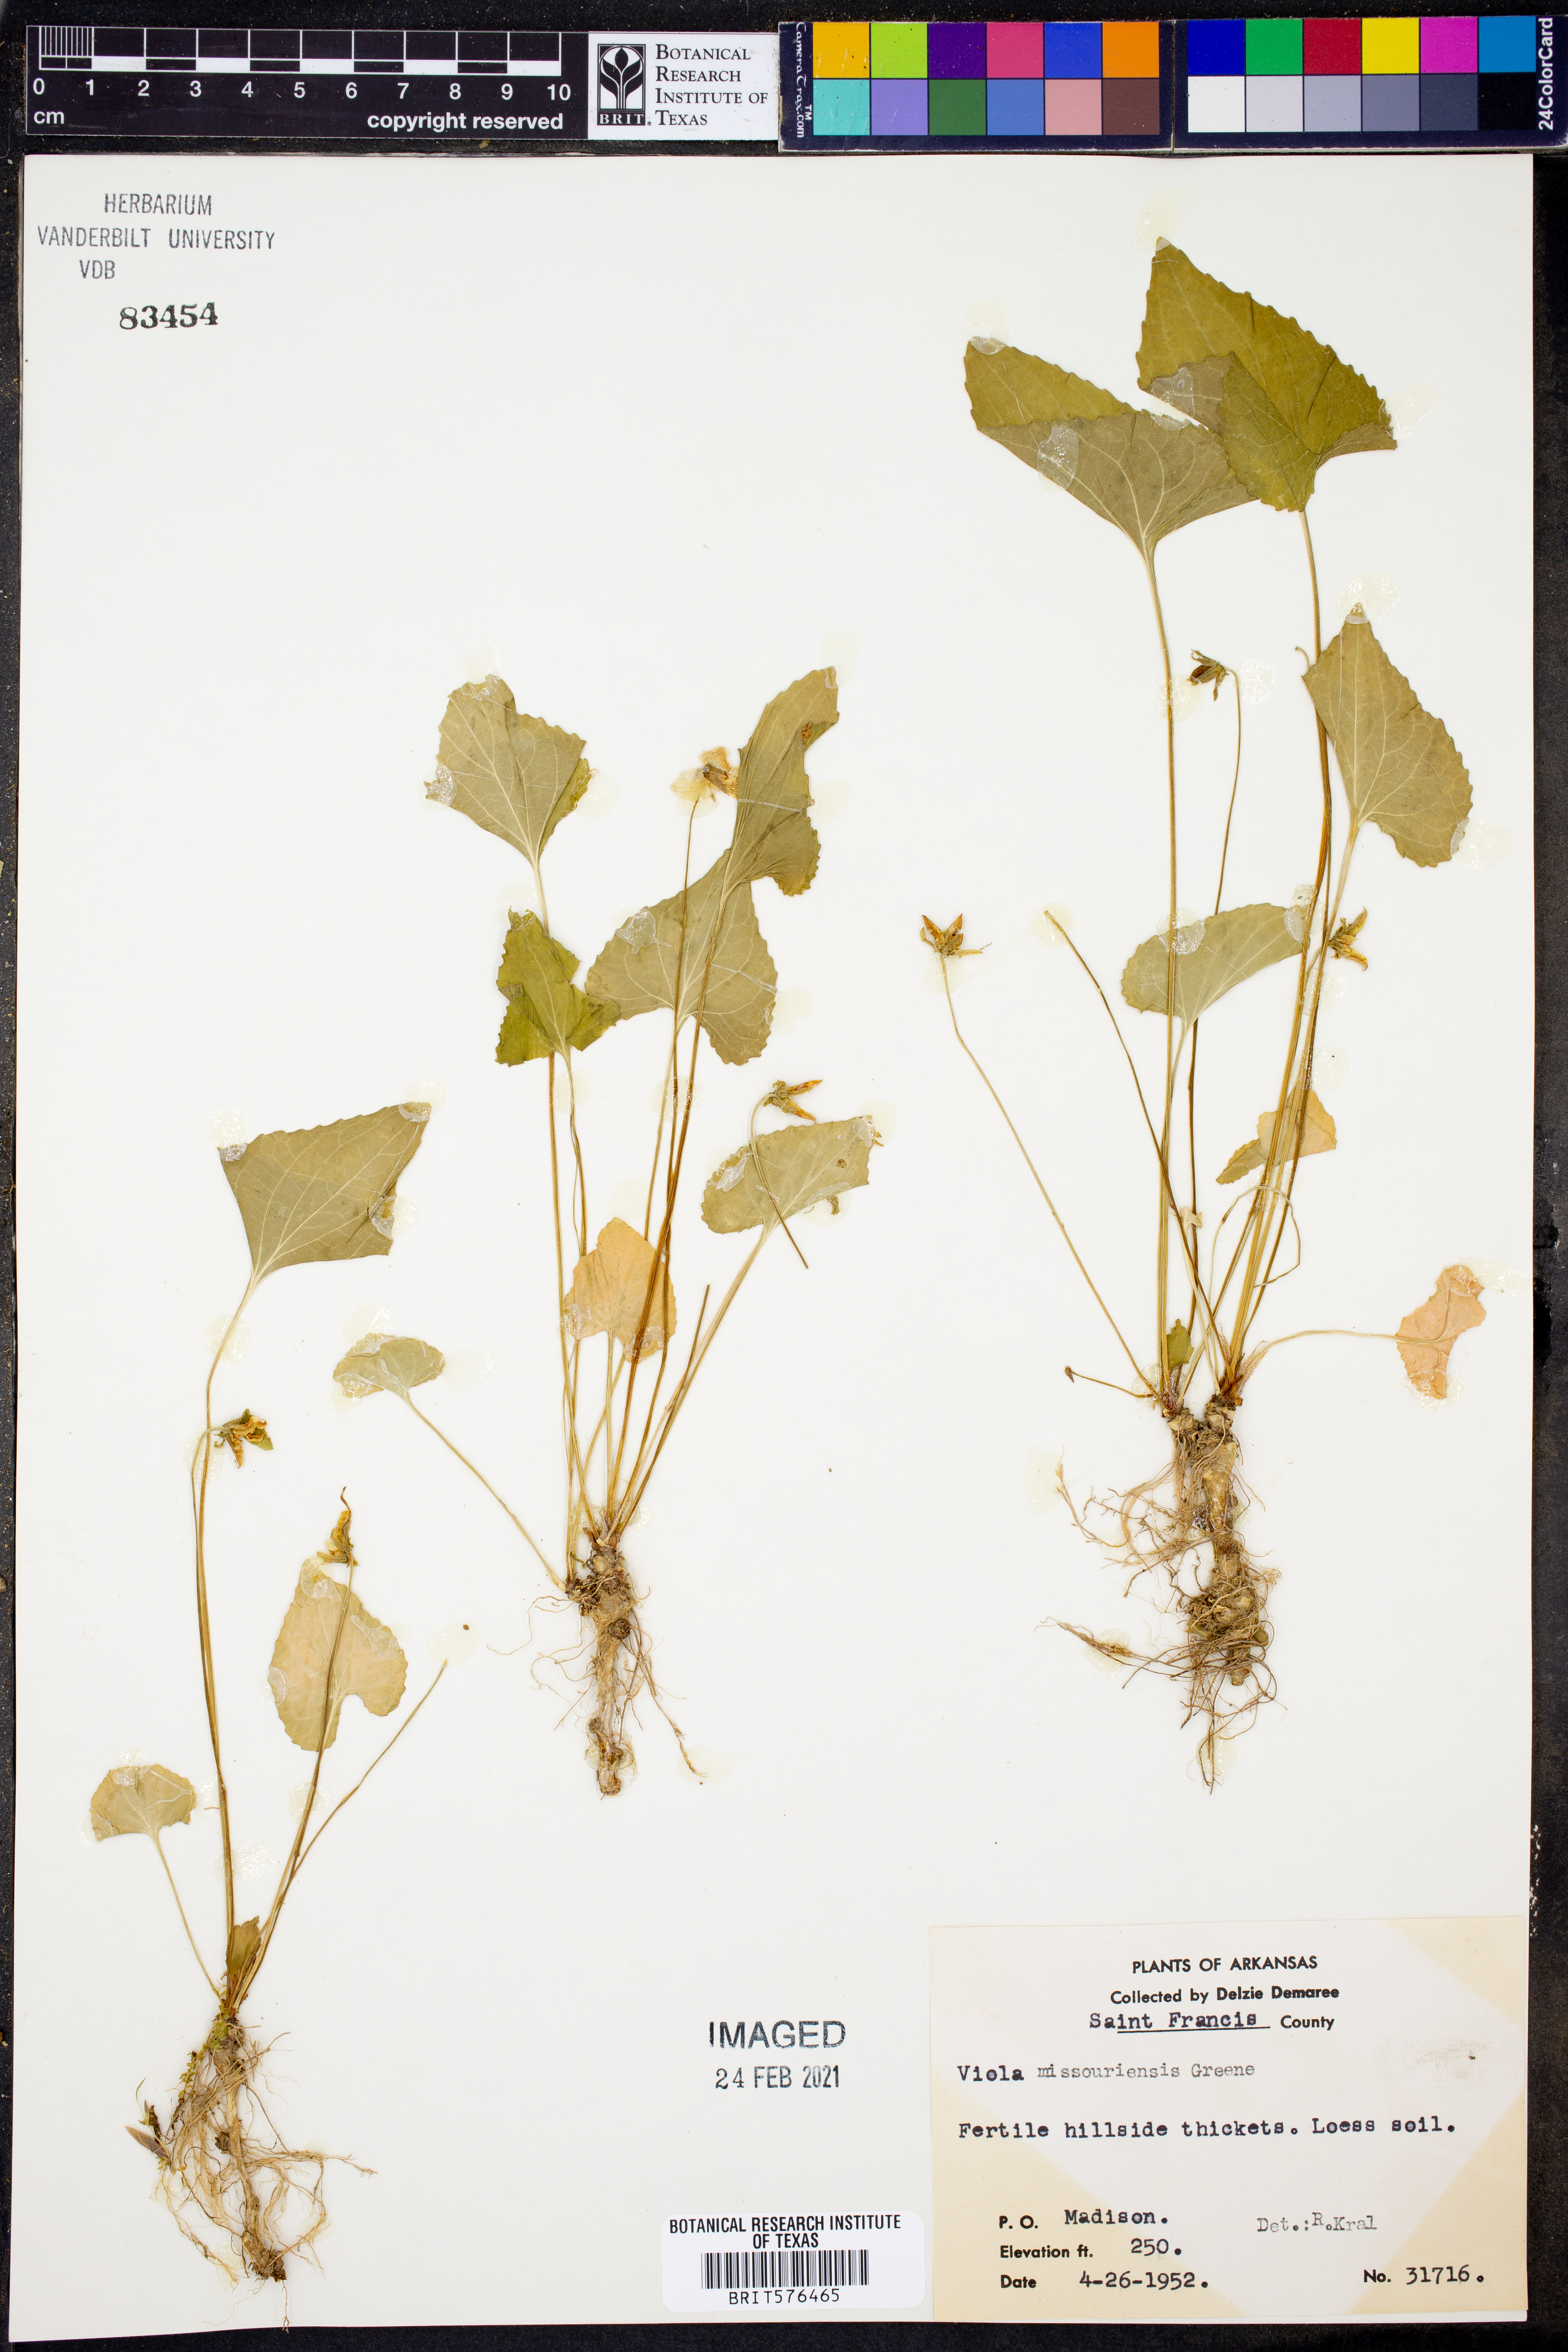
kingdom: Plantae
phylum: Tracheophyta
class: Magnoliopsida
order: Malpighiales
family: Violaceae
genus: Viola
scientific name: Viola missouriensis
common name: Missouri violet
